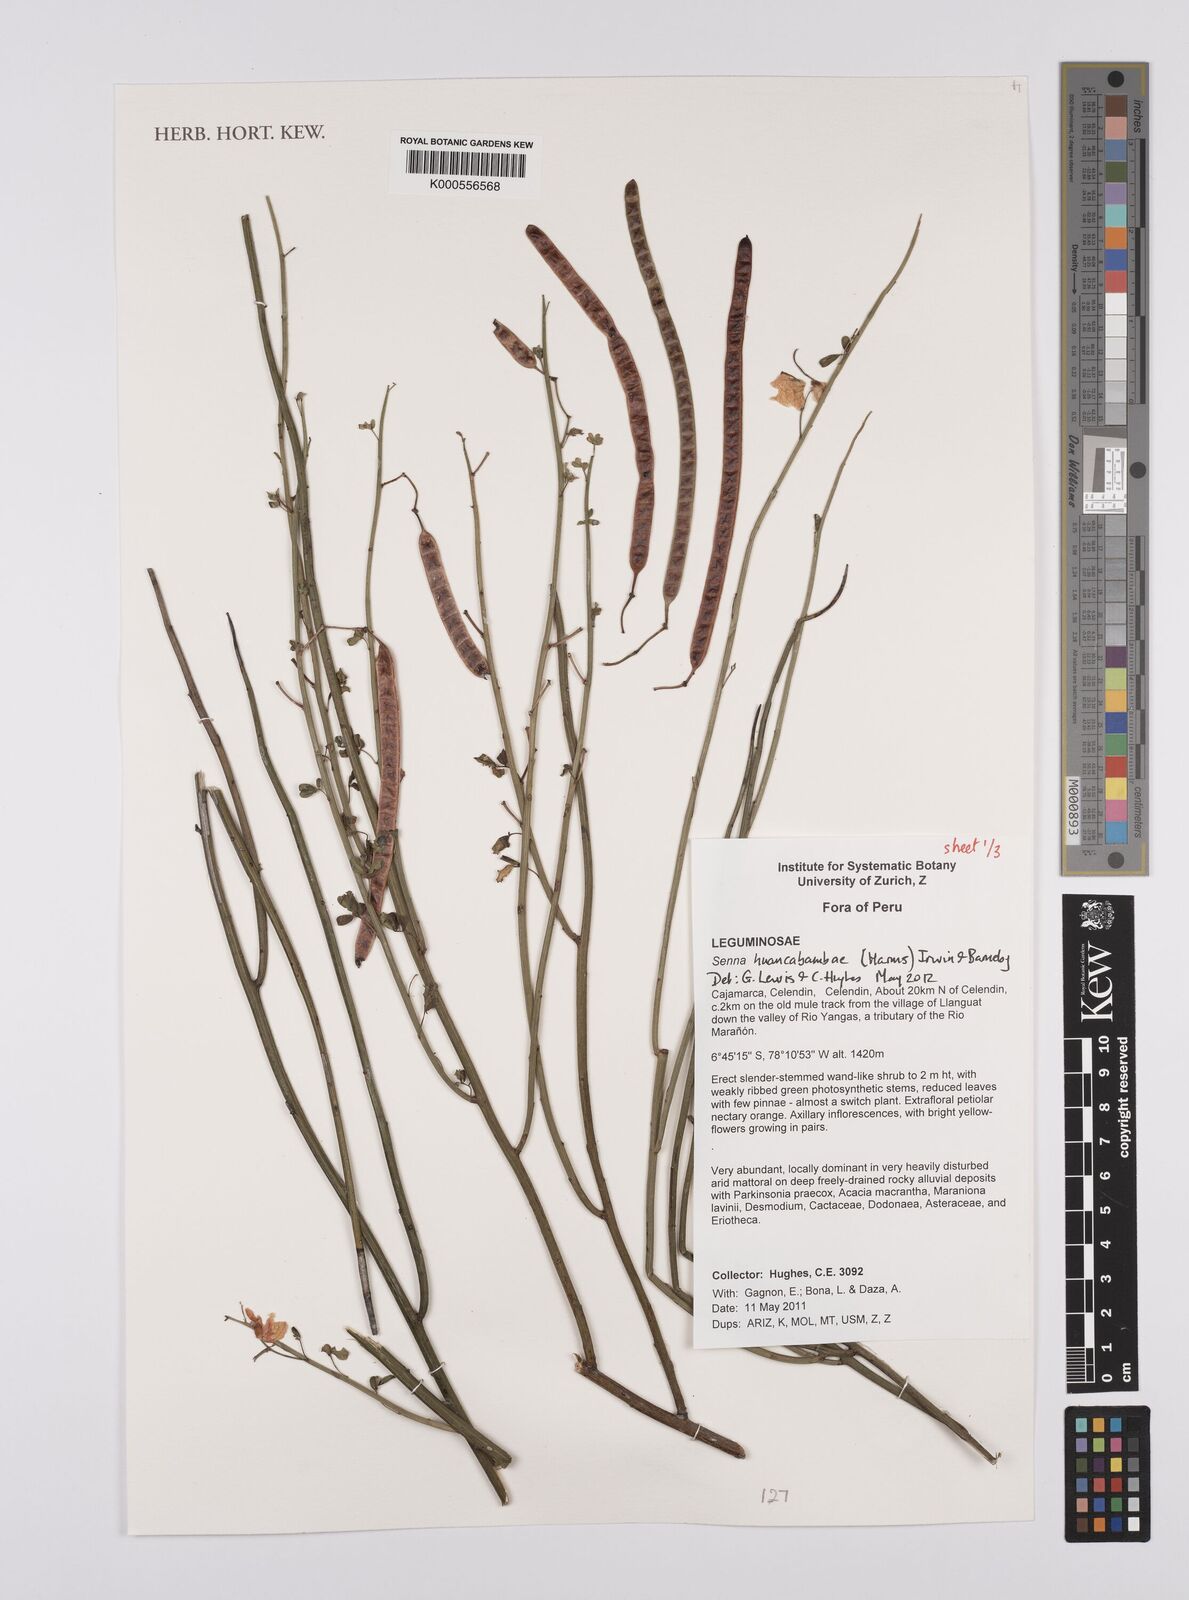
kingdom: Plantae
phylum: Tracheophyta
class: Magnoliopsida
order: Fabales
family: Fabaceae
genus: Senna
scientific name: Senna huancabambae
